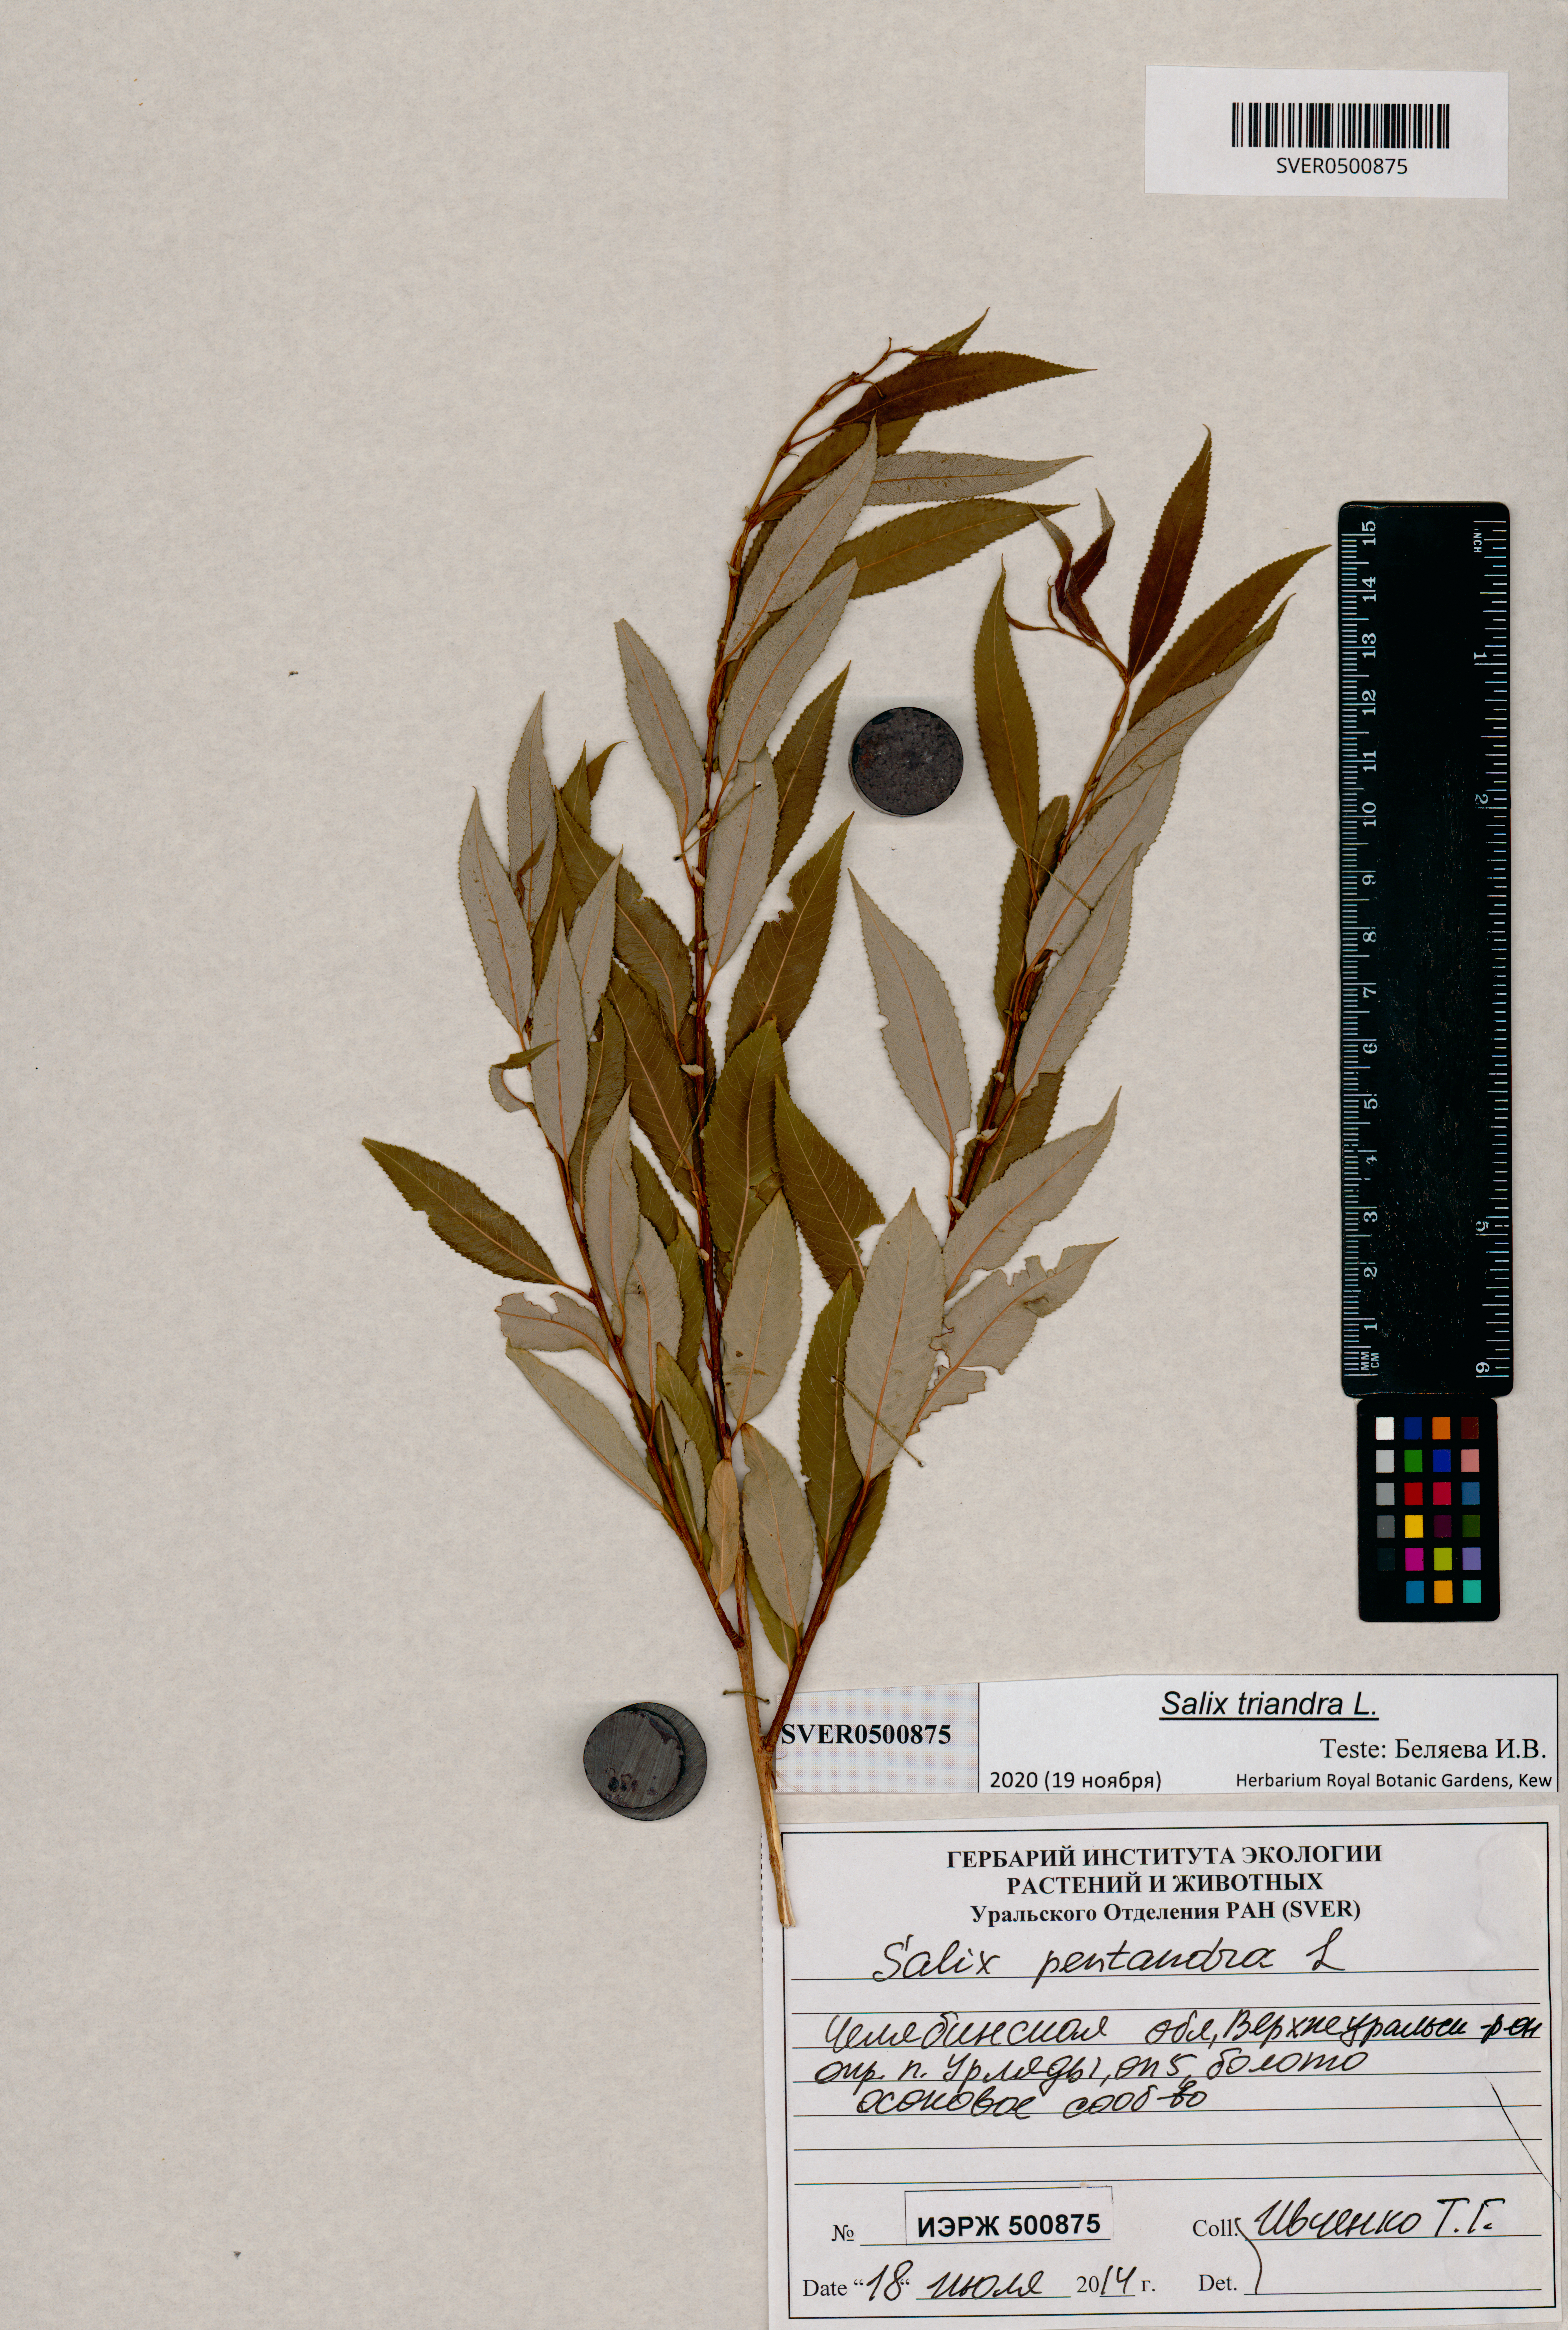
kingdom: Plantae
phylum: Tracheophyta
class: Magnoliopsida
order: Malpighiales
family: Salicaceae
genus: Salix
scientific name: Salix triandra
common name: Almond willow
